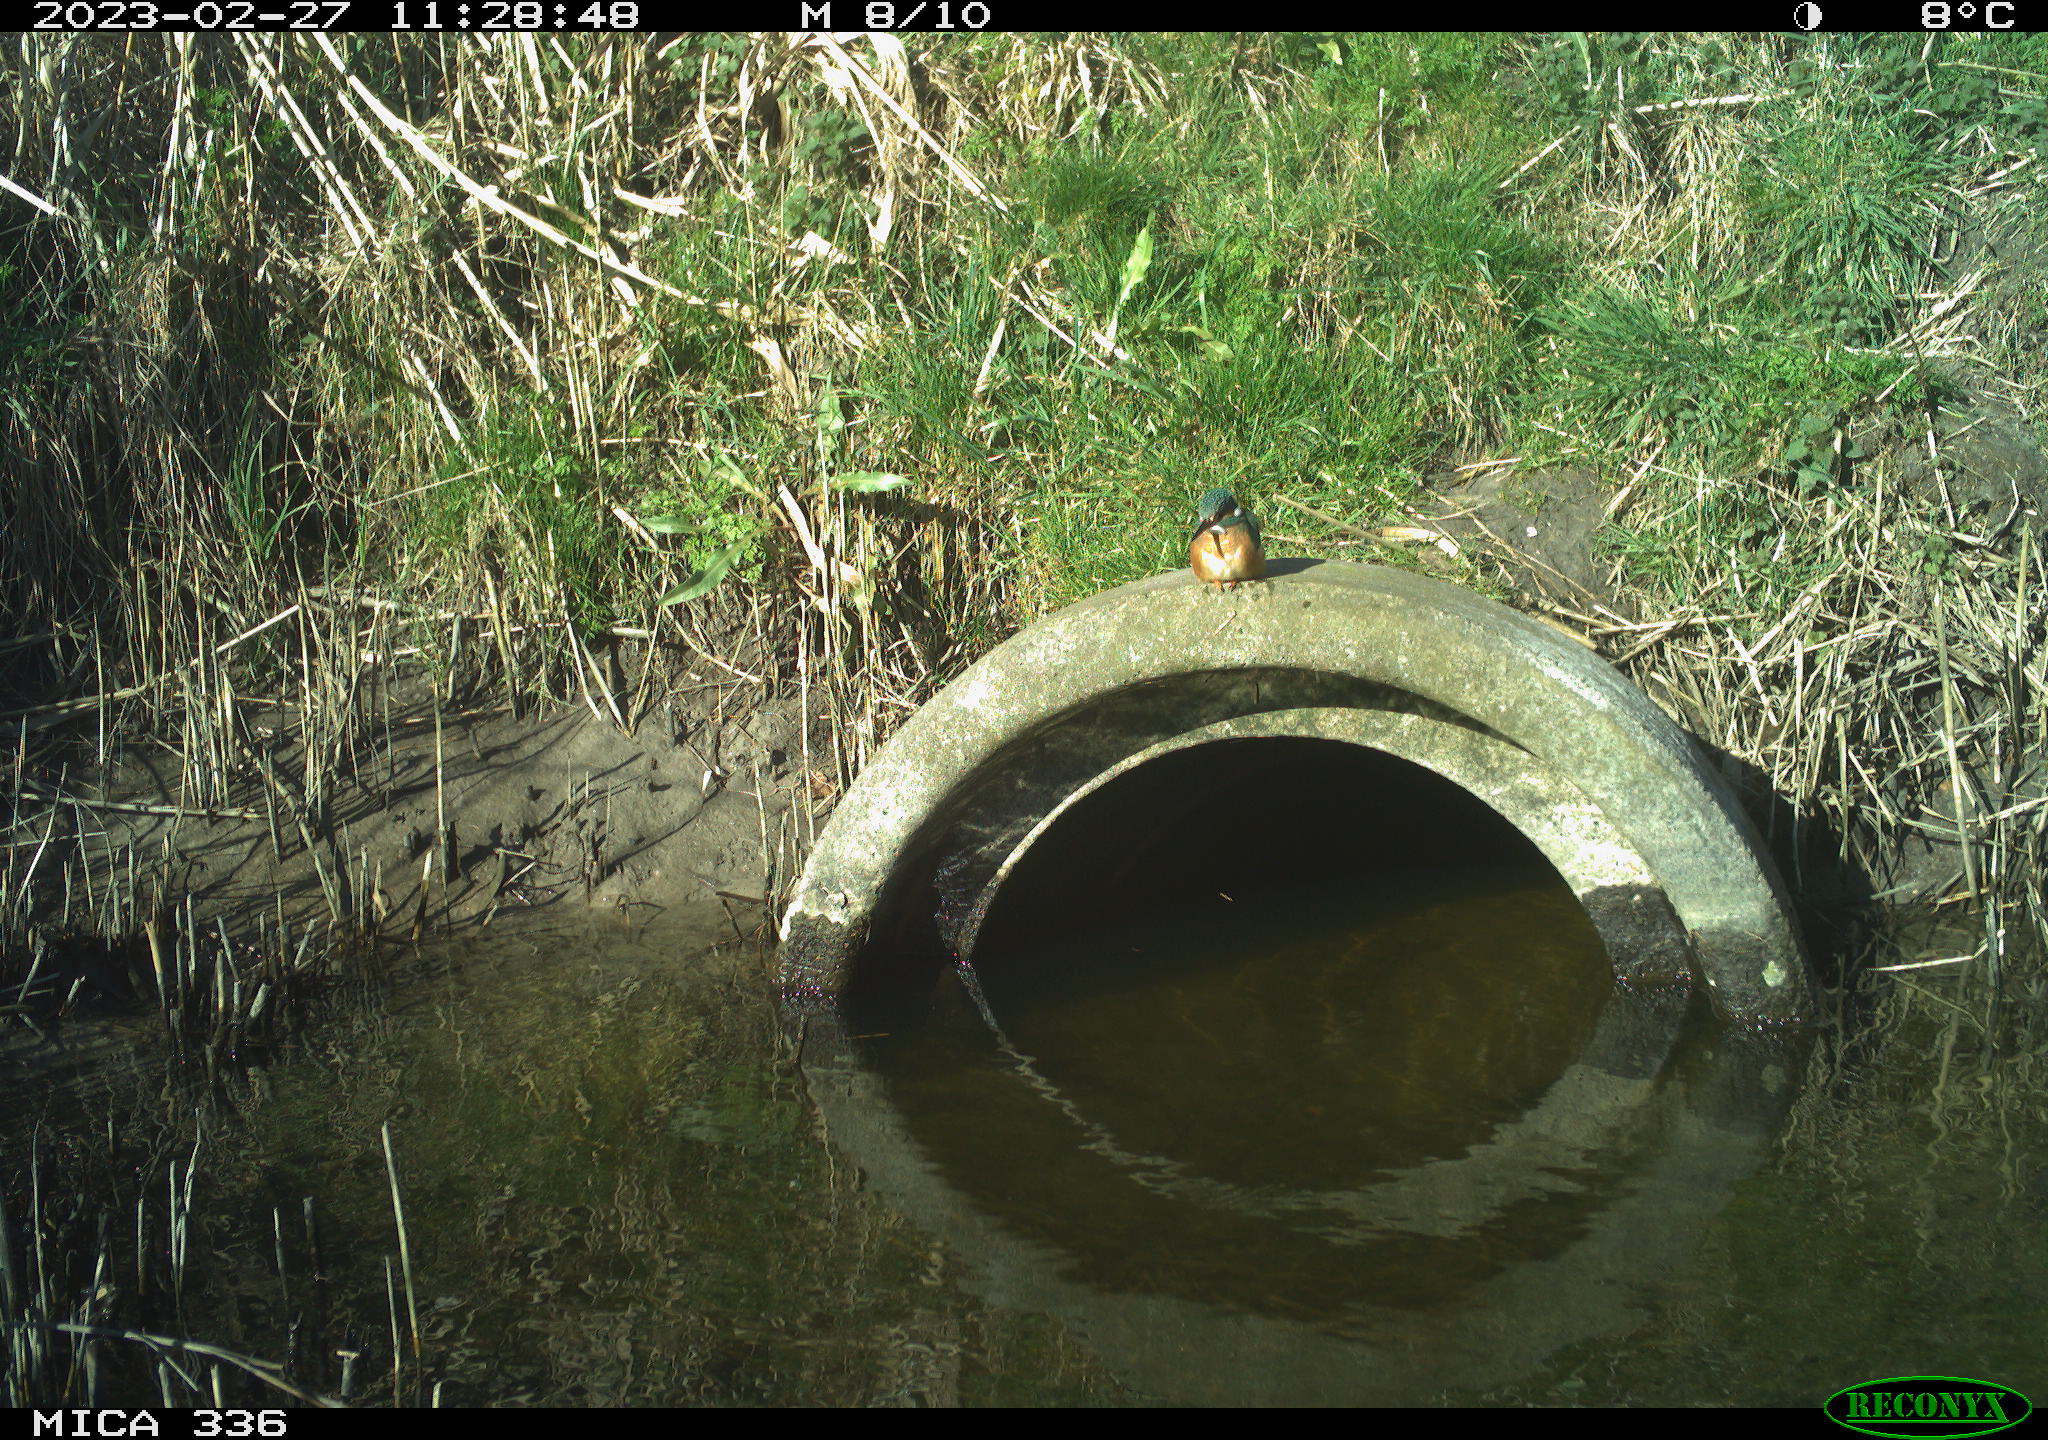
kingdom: Animalia
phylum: Chordata
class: Aves
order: Coraciiformes
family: Alcedinidae
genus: Alcedo
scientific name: Alcedo atthis
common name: Common kingfisher
